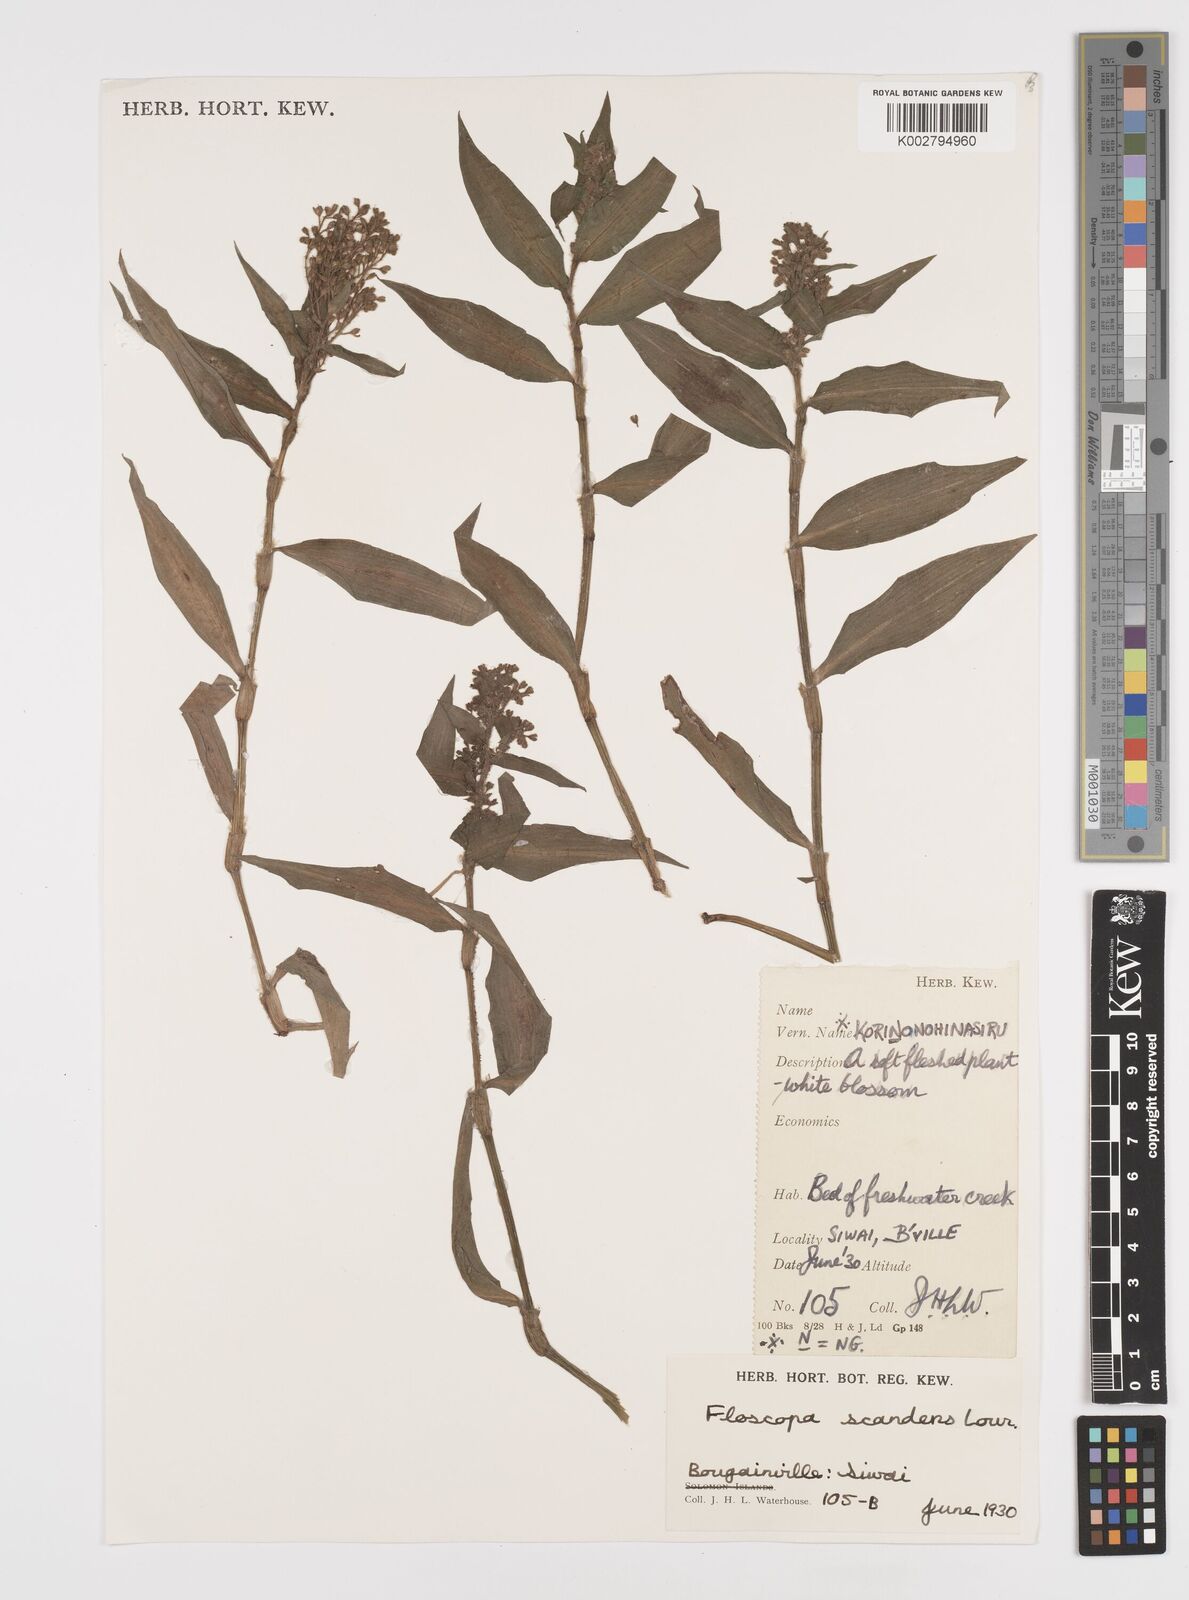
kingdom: Plantae
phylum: Tracheophyta
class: Liliopsida
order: Commelinales
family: Commelinaceae
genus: Floscopa
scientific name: Floscopa scandens
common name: Climbing flower cup
